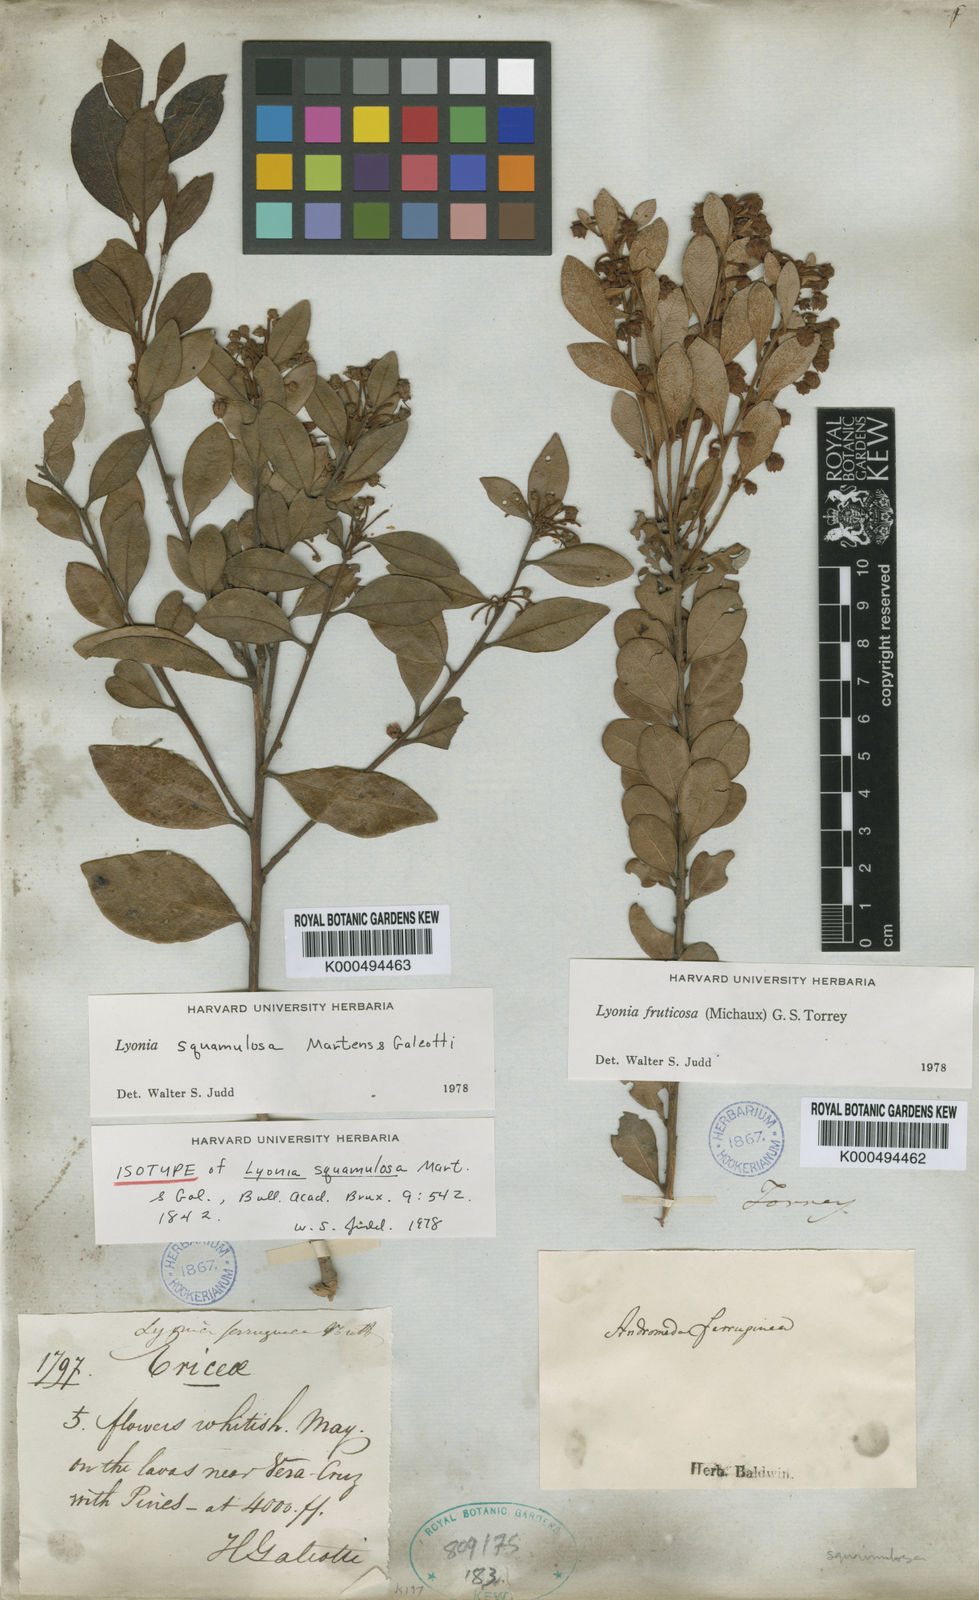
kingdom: Plantae
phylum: Tracheophyta
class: Magnoliopsida
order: Ericales
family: Ericaceae
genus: Lyonia
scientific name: Lyonia squamulosa
